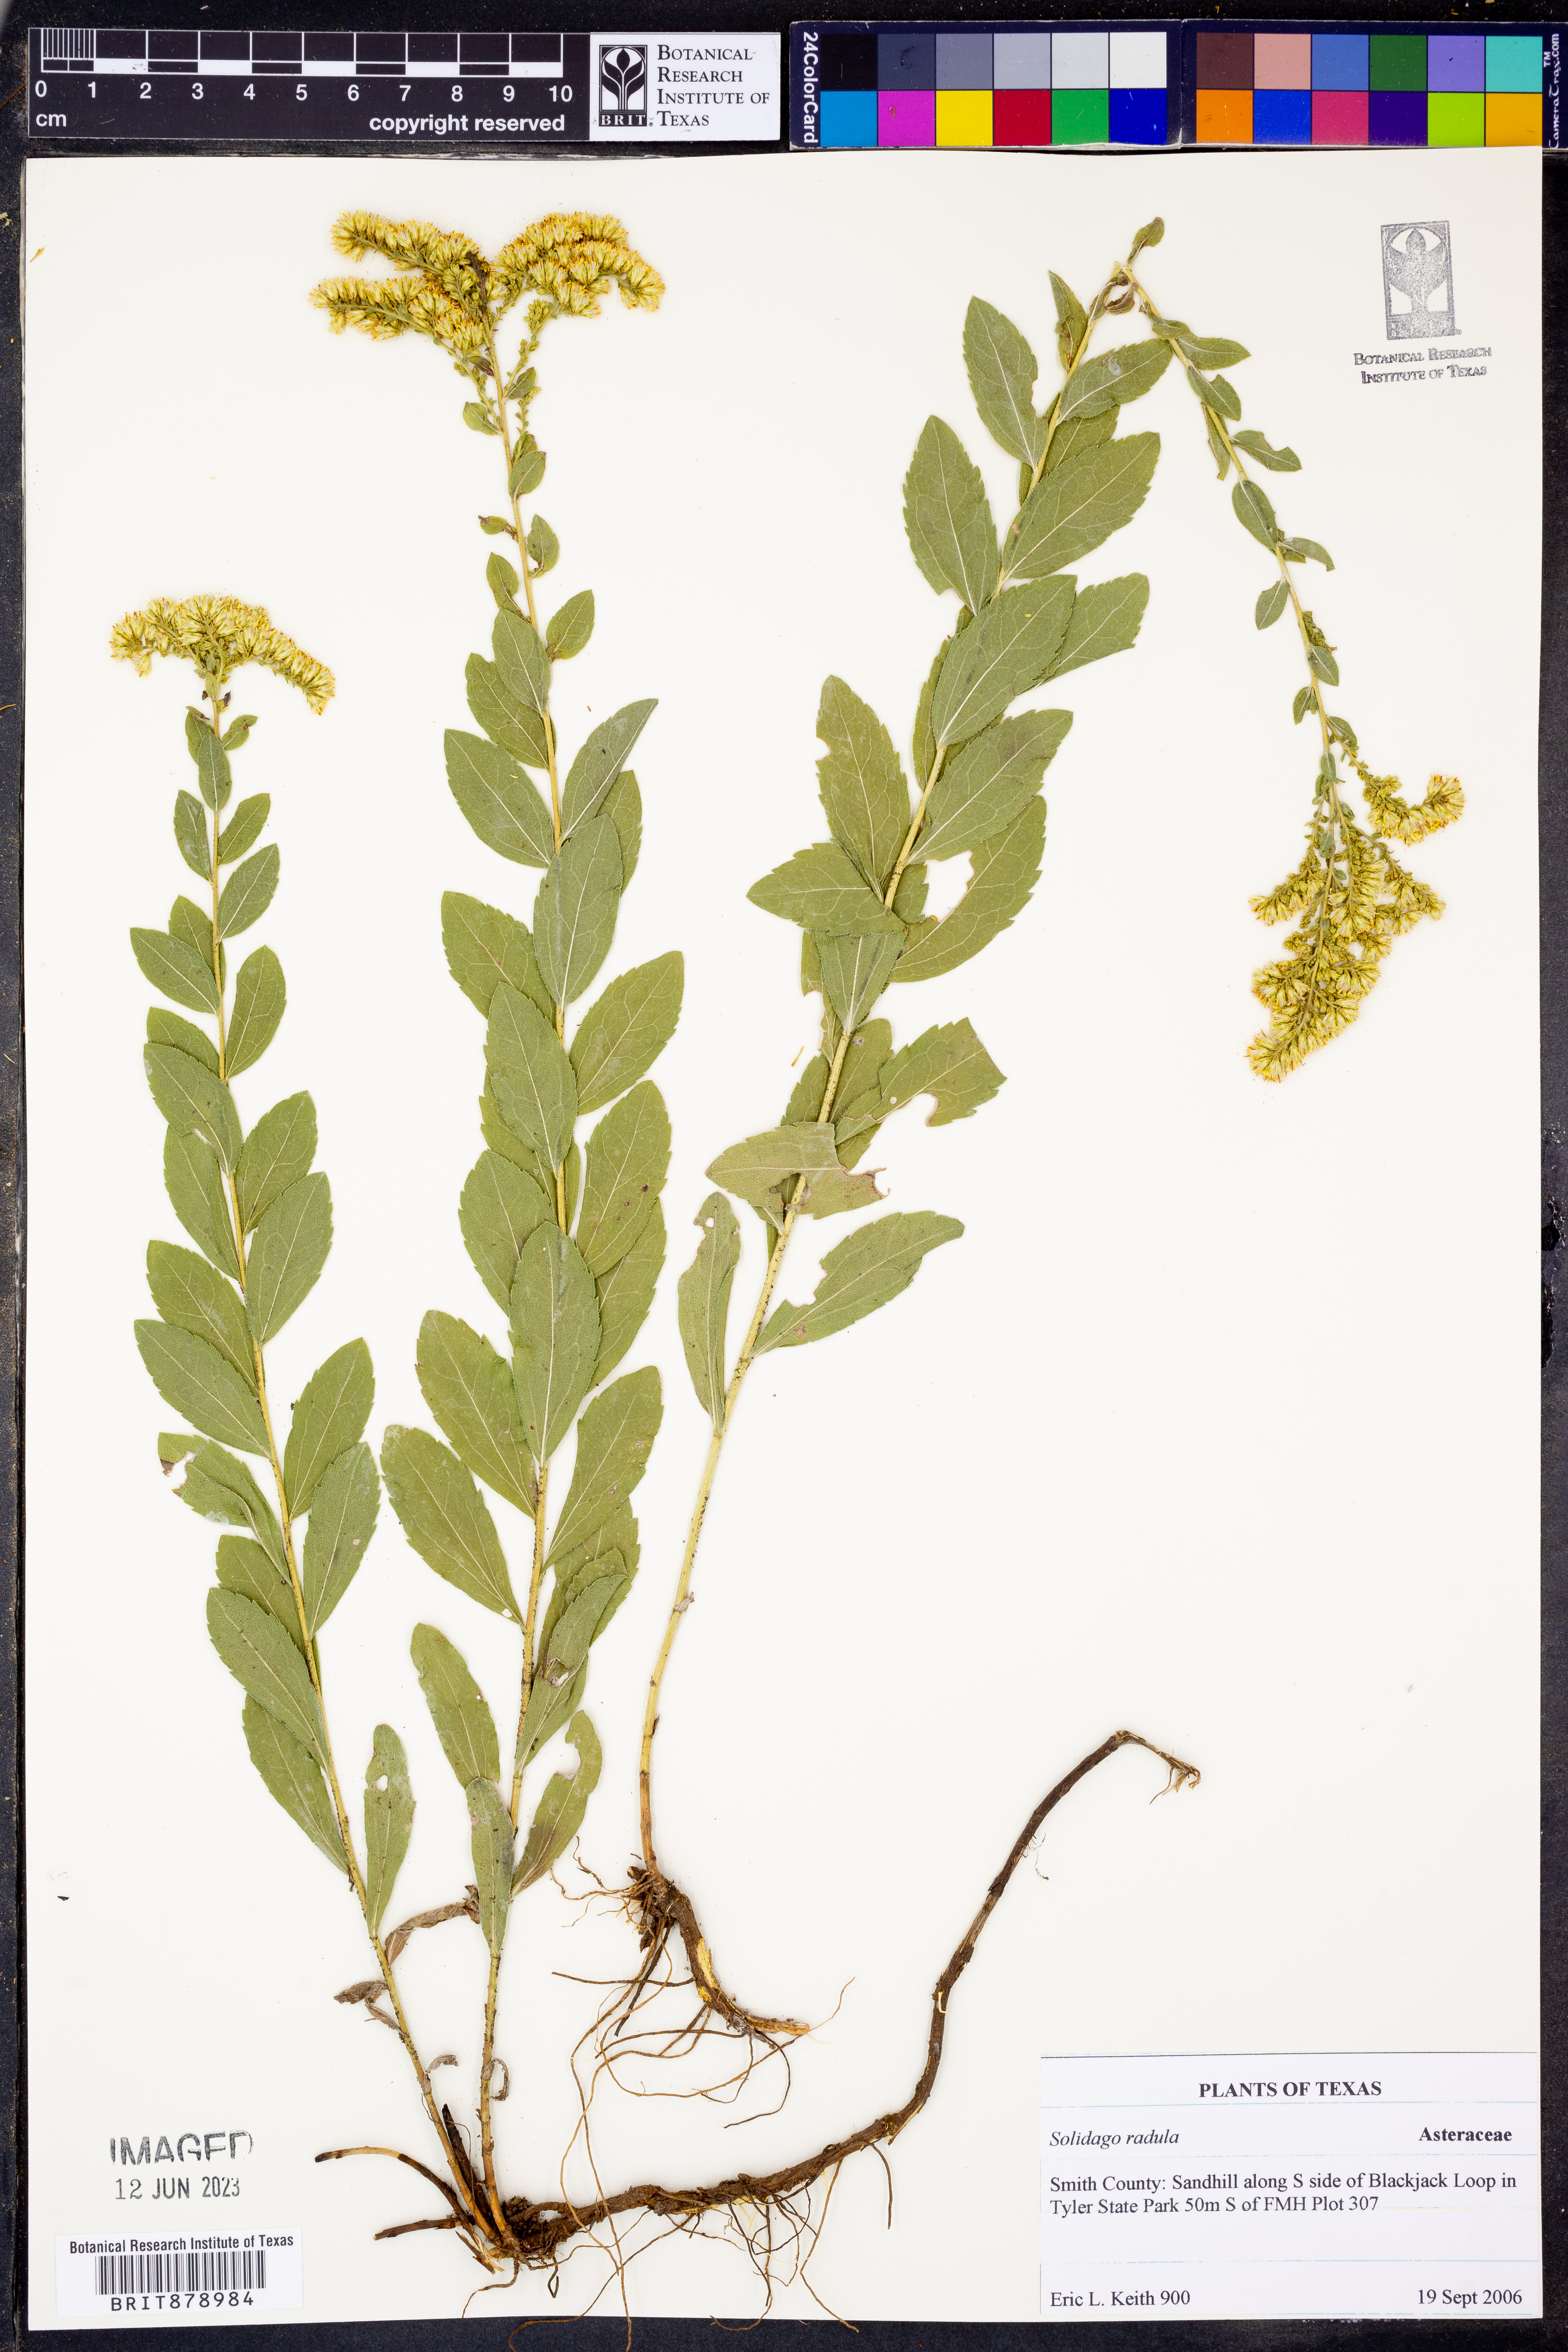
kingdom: Plantae
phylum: Tracheophyta
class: Magnoliopsida
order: Asterales
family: Asteraceae
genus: Solidago
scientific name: Solidago radula
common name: Western rough goldenrod
